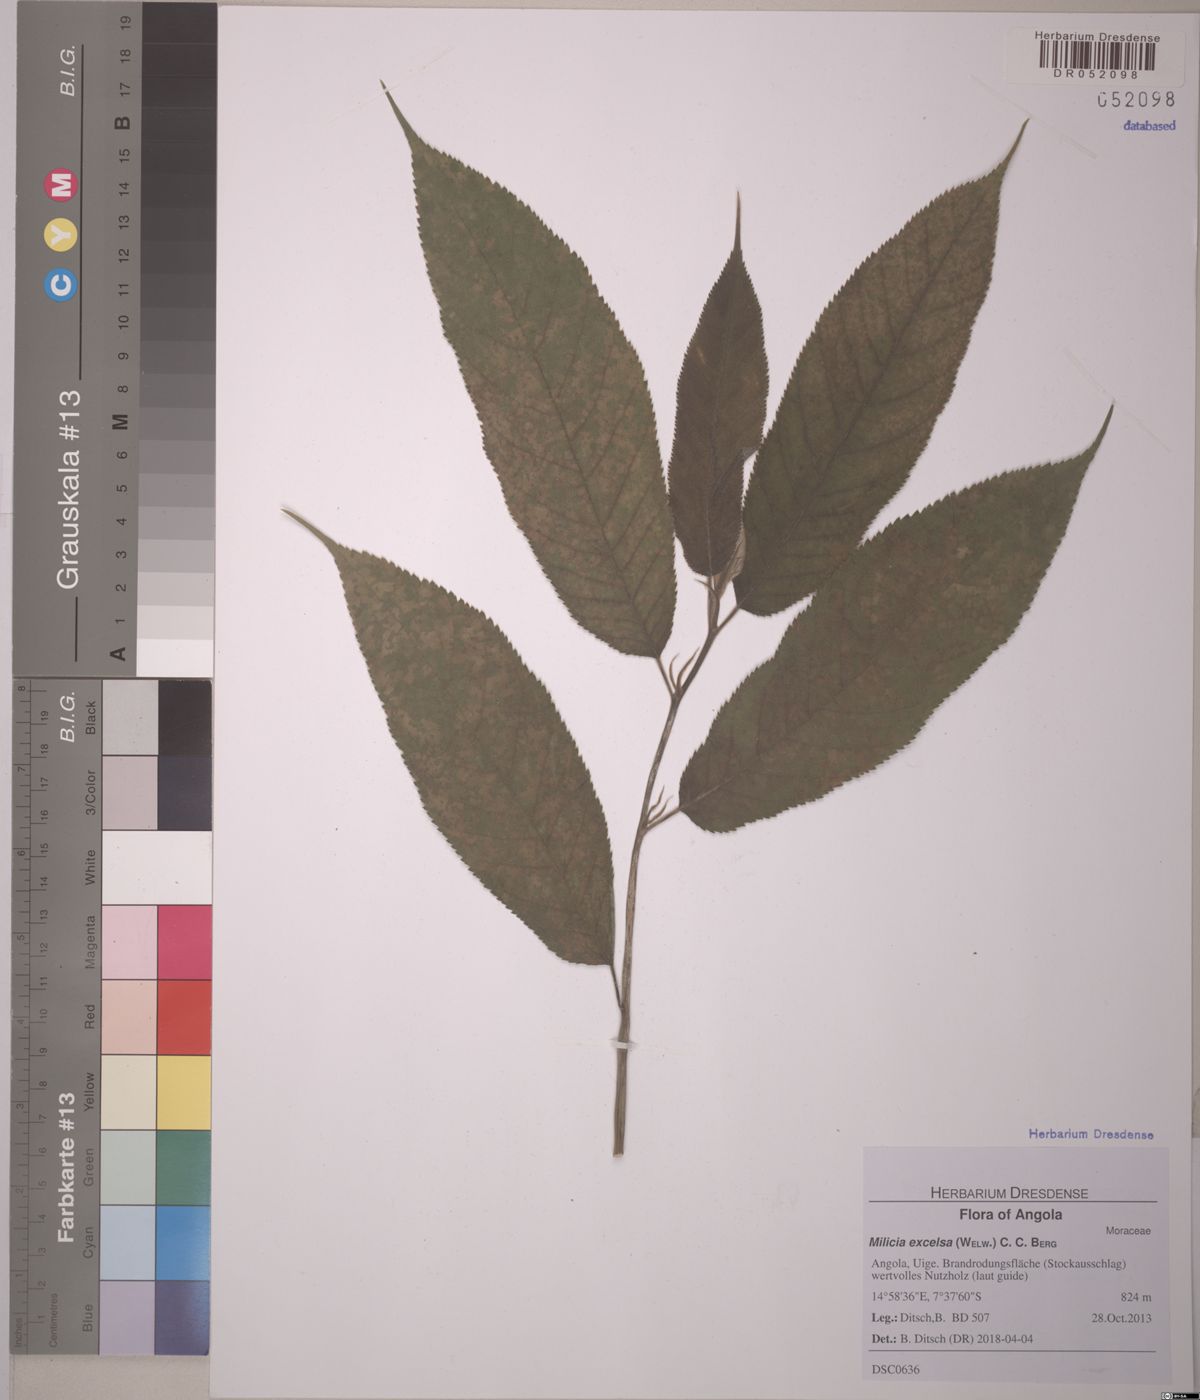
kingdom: Plantae
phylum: Tracheophyta
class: Magnoliopsida
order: Rosales
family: Moraceae
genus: Milicia
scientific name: Milicia excelsa
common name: African teak
